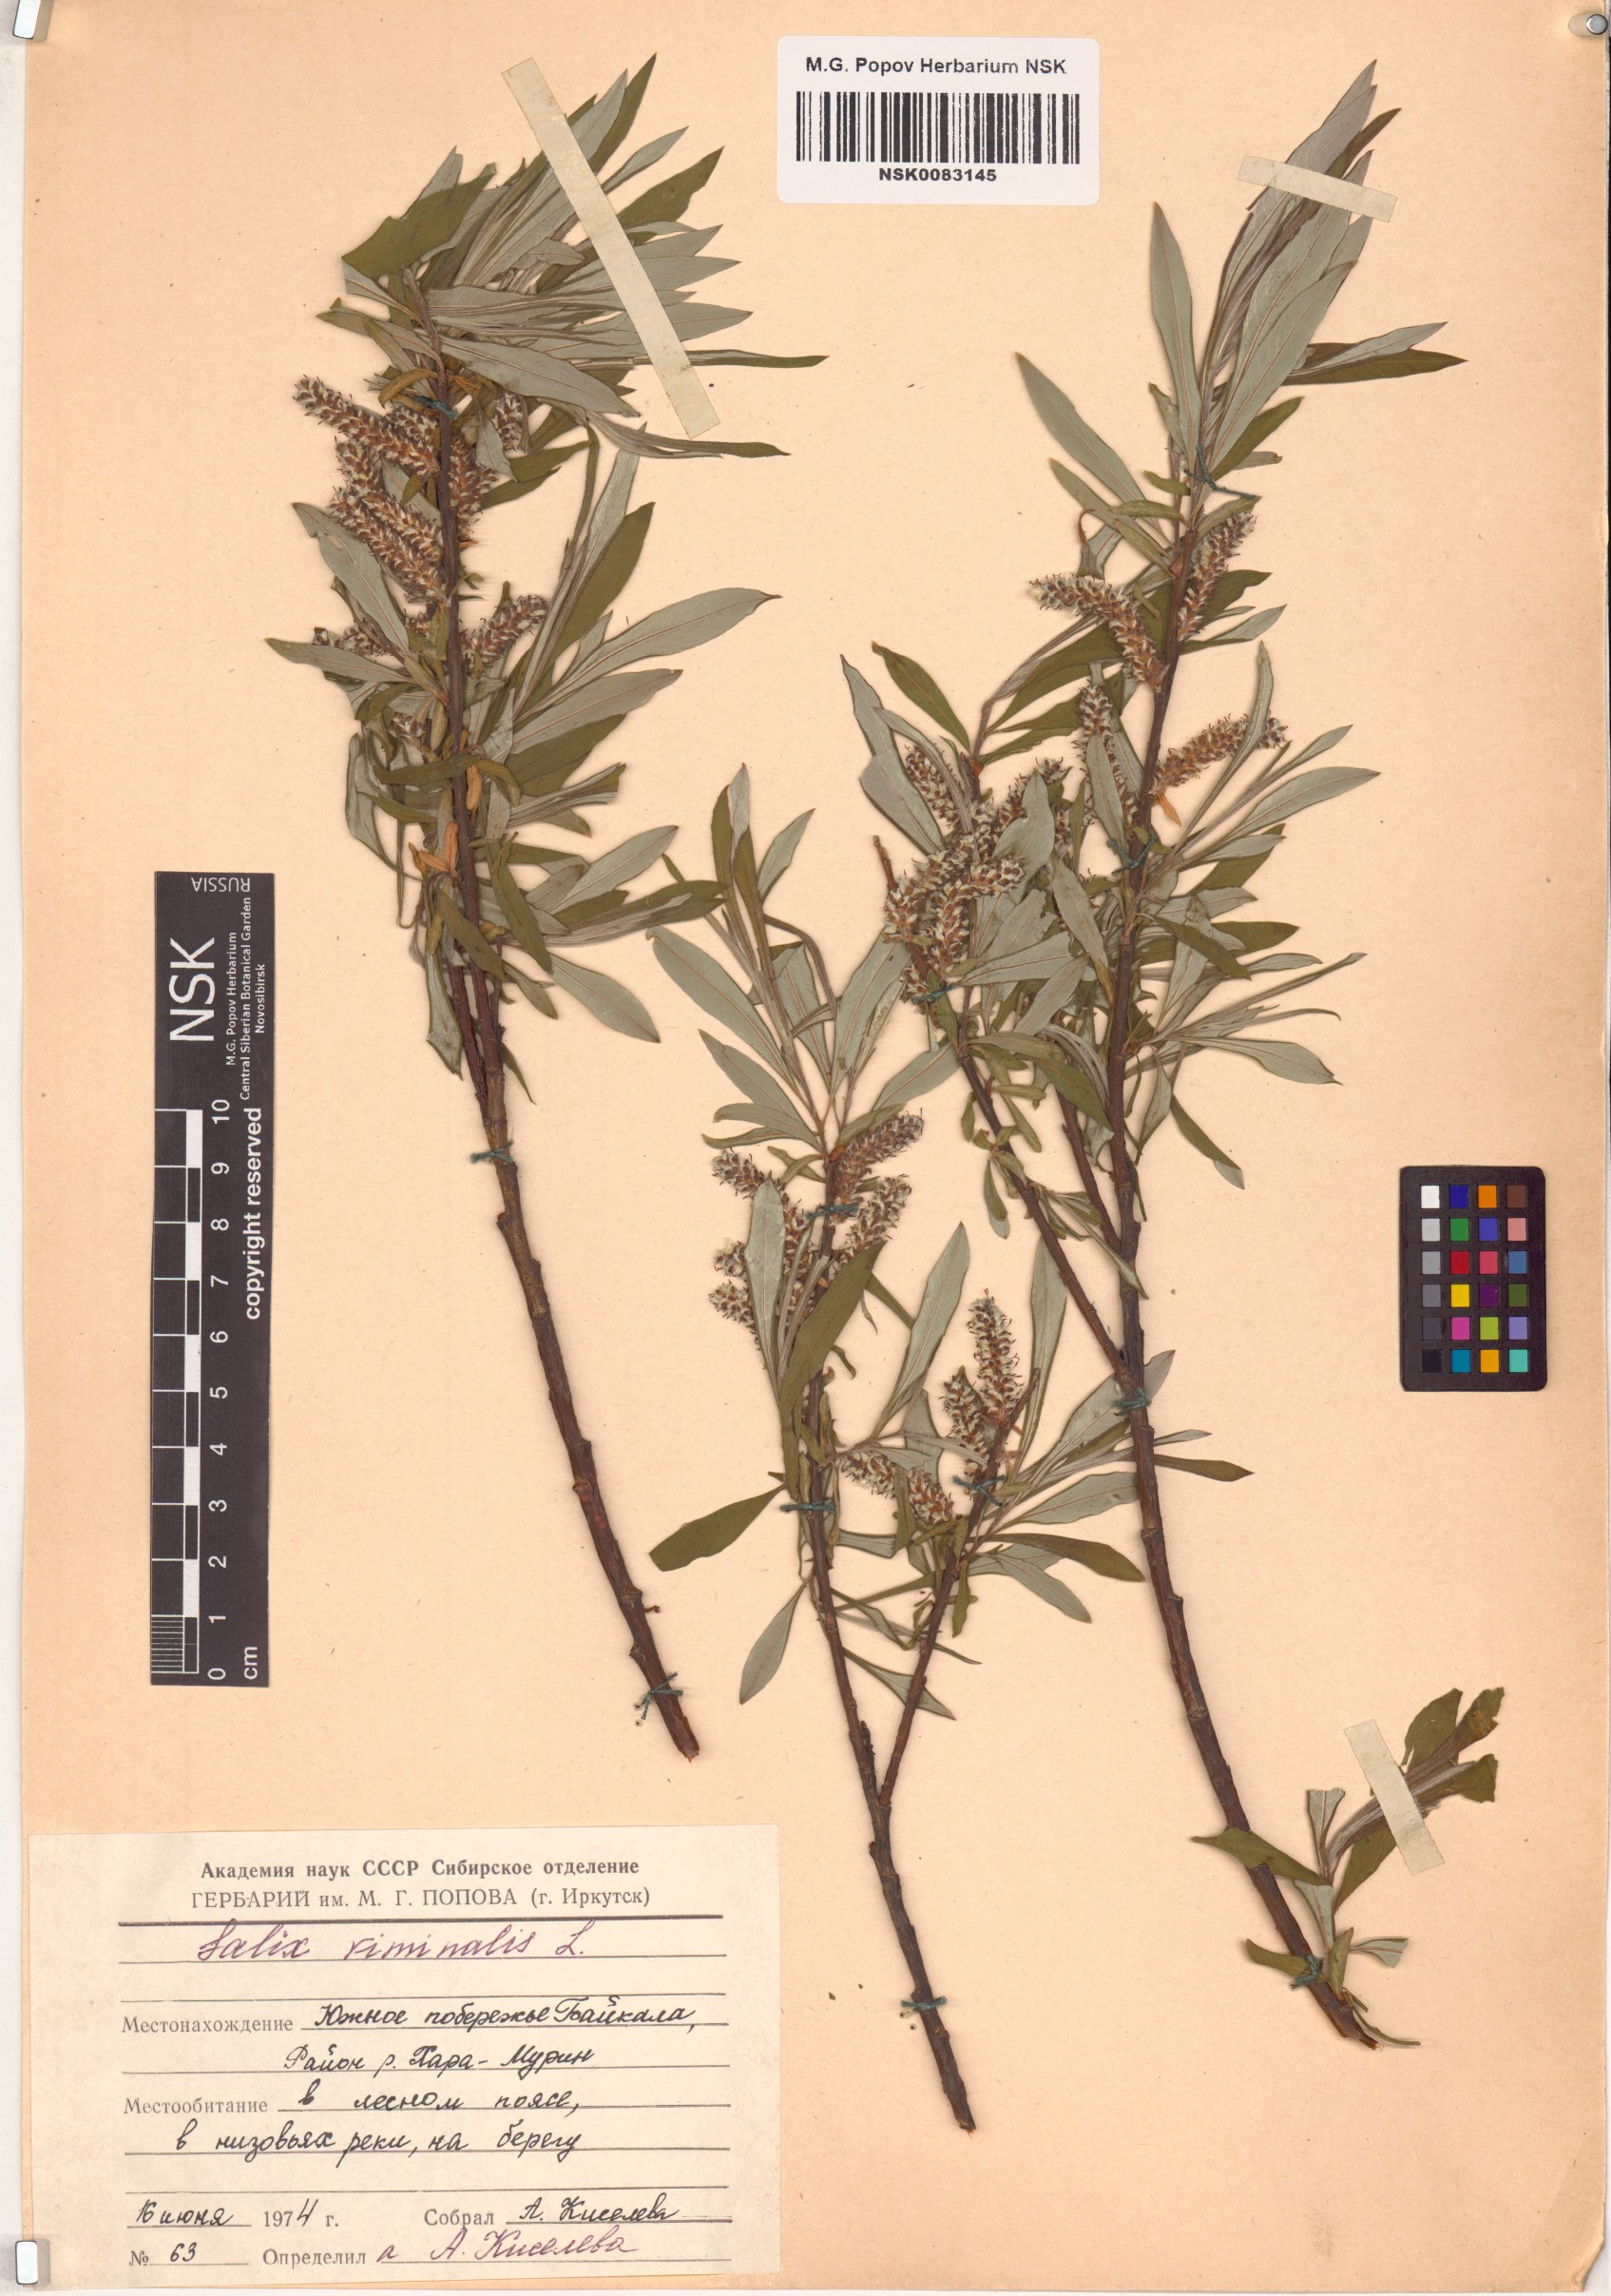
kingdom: Plantae
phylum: Tracheophyta
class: Magnoliopsida
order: Malpighiales
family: Salicaceae
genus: Salix
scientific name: Salix viminalis
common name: Osier
